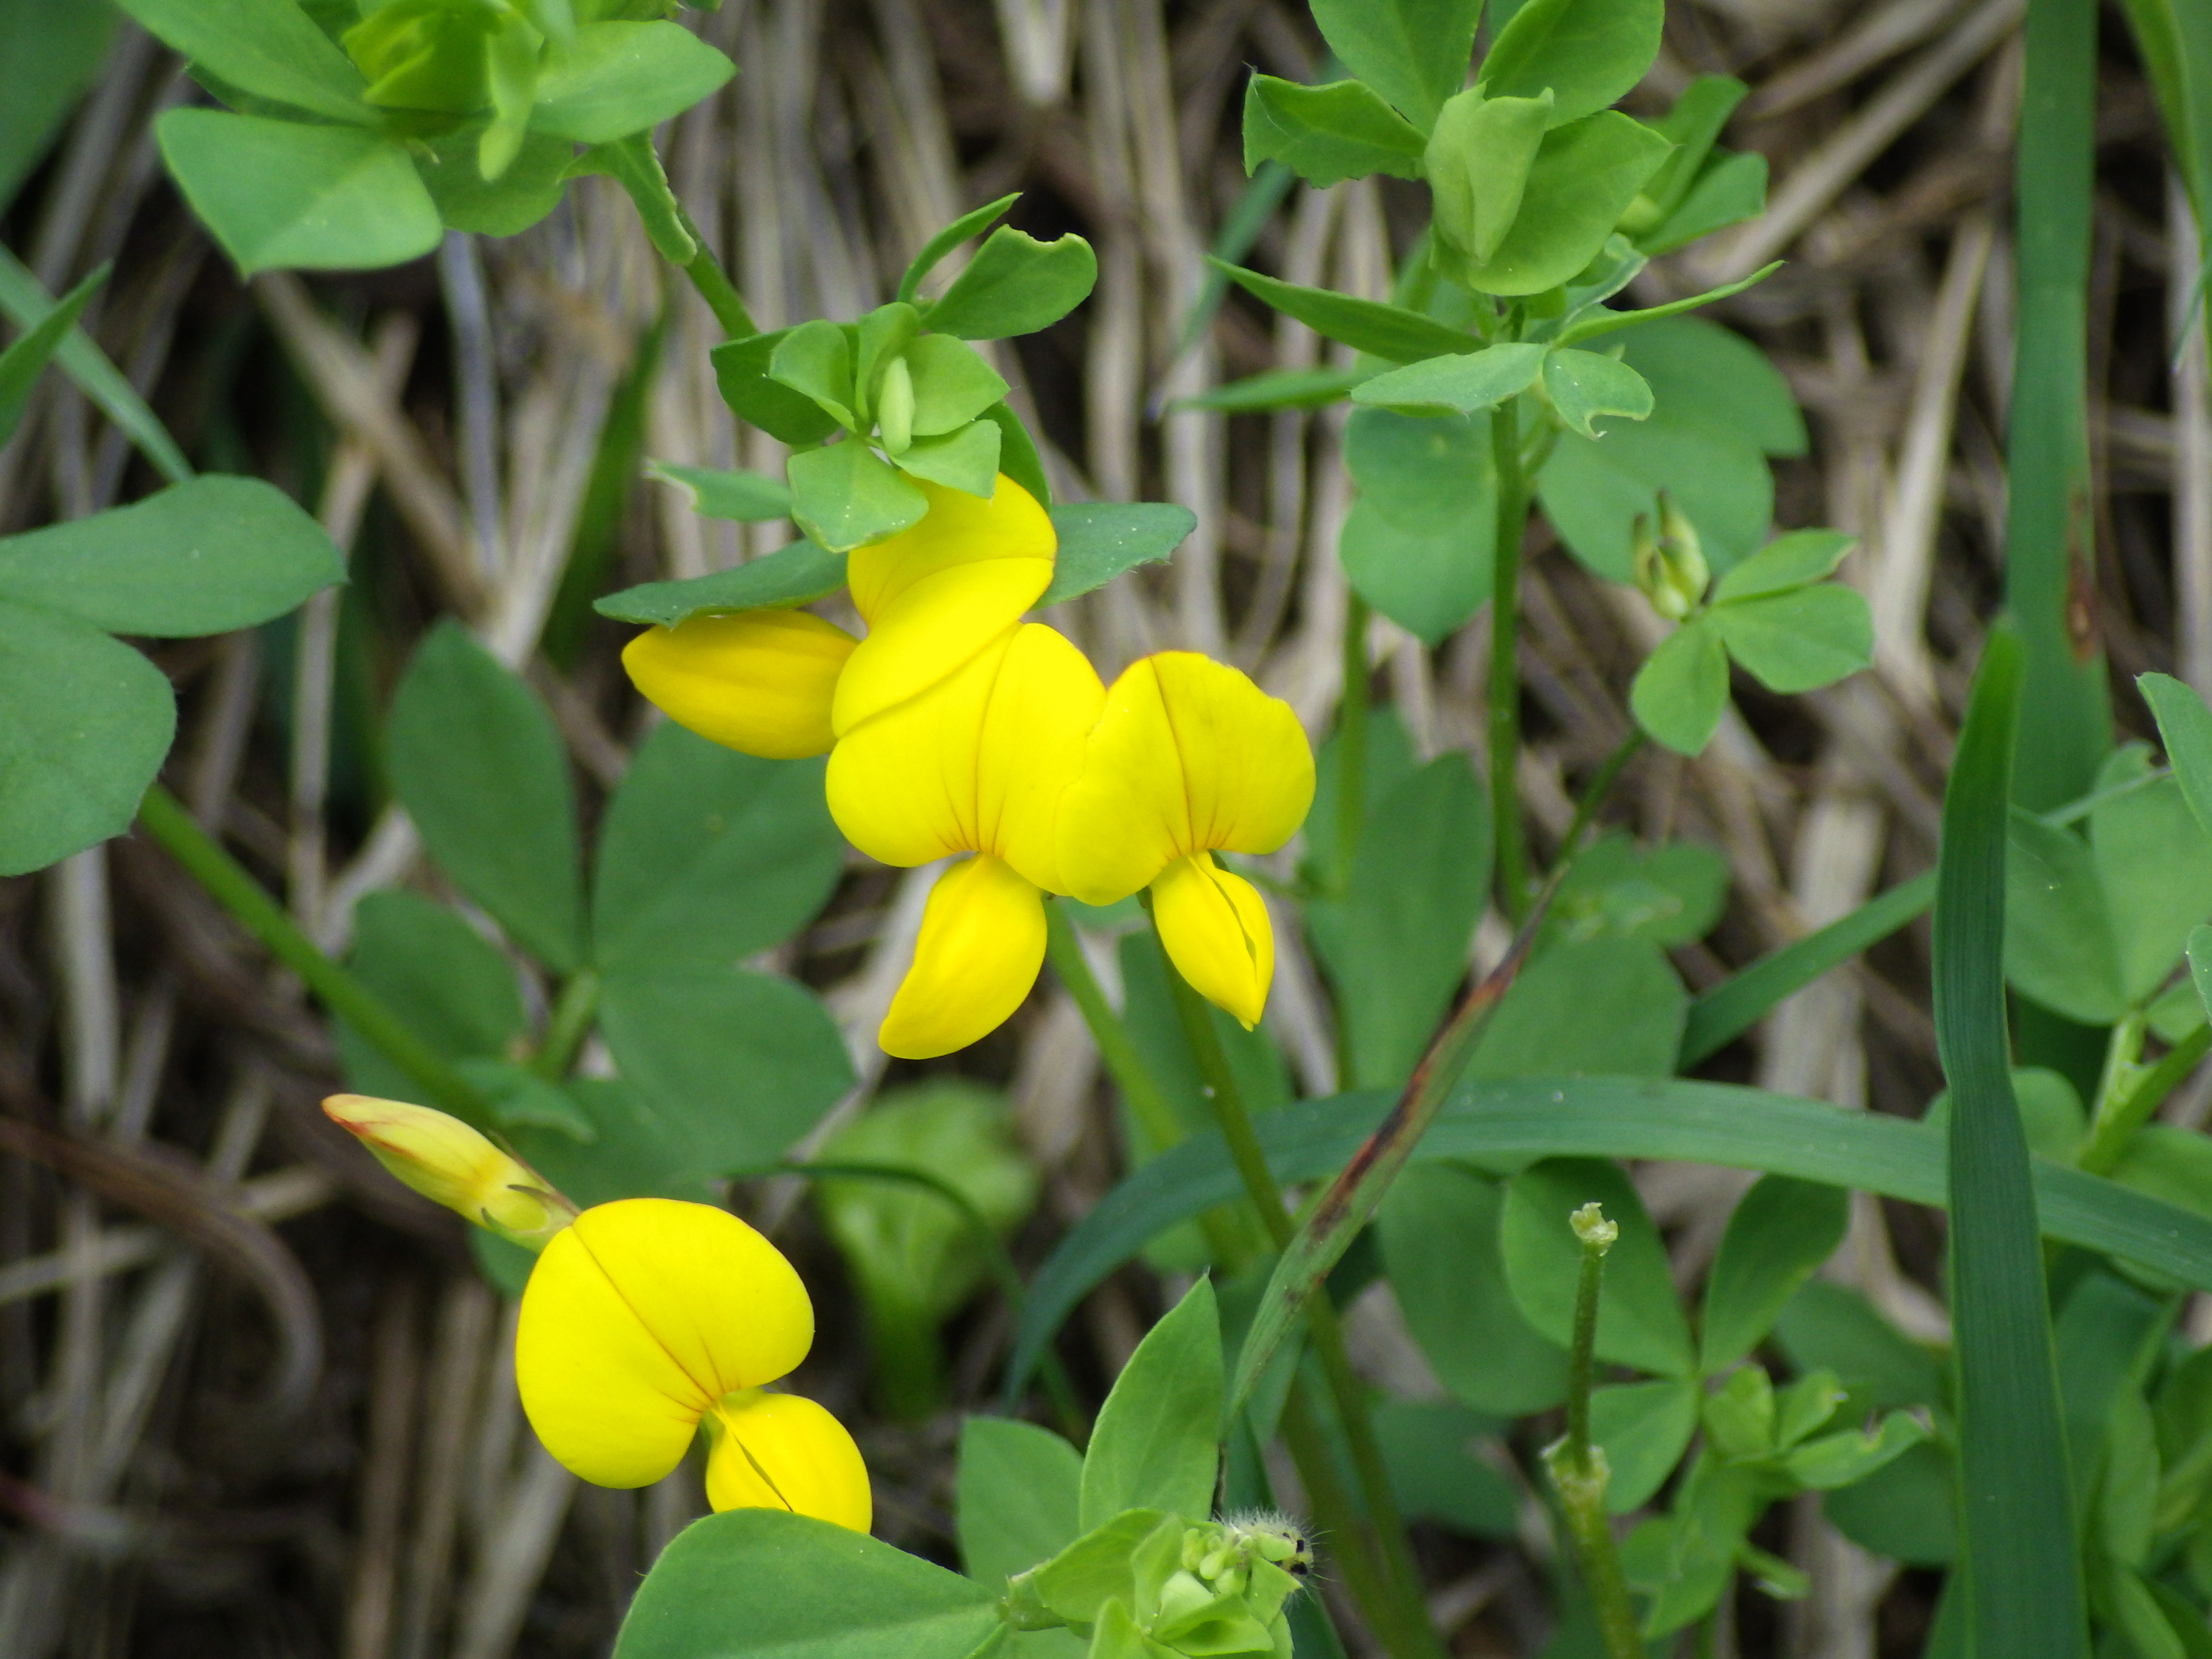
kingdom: Plantae
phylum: Tracheophyta
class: Magnoliopsida
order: Fabales
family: Fabaceae
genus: Lotus
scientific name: Lotus corniculatus
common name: Common bird's-foot-trefoil
